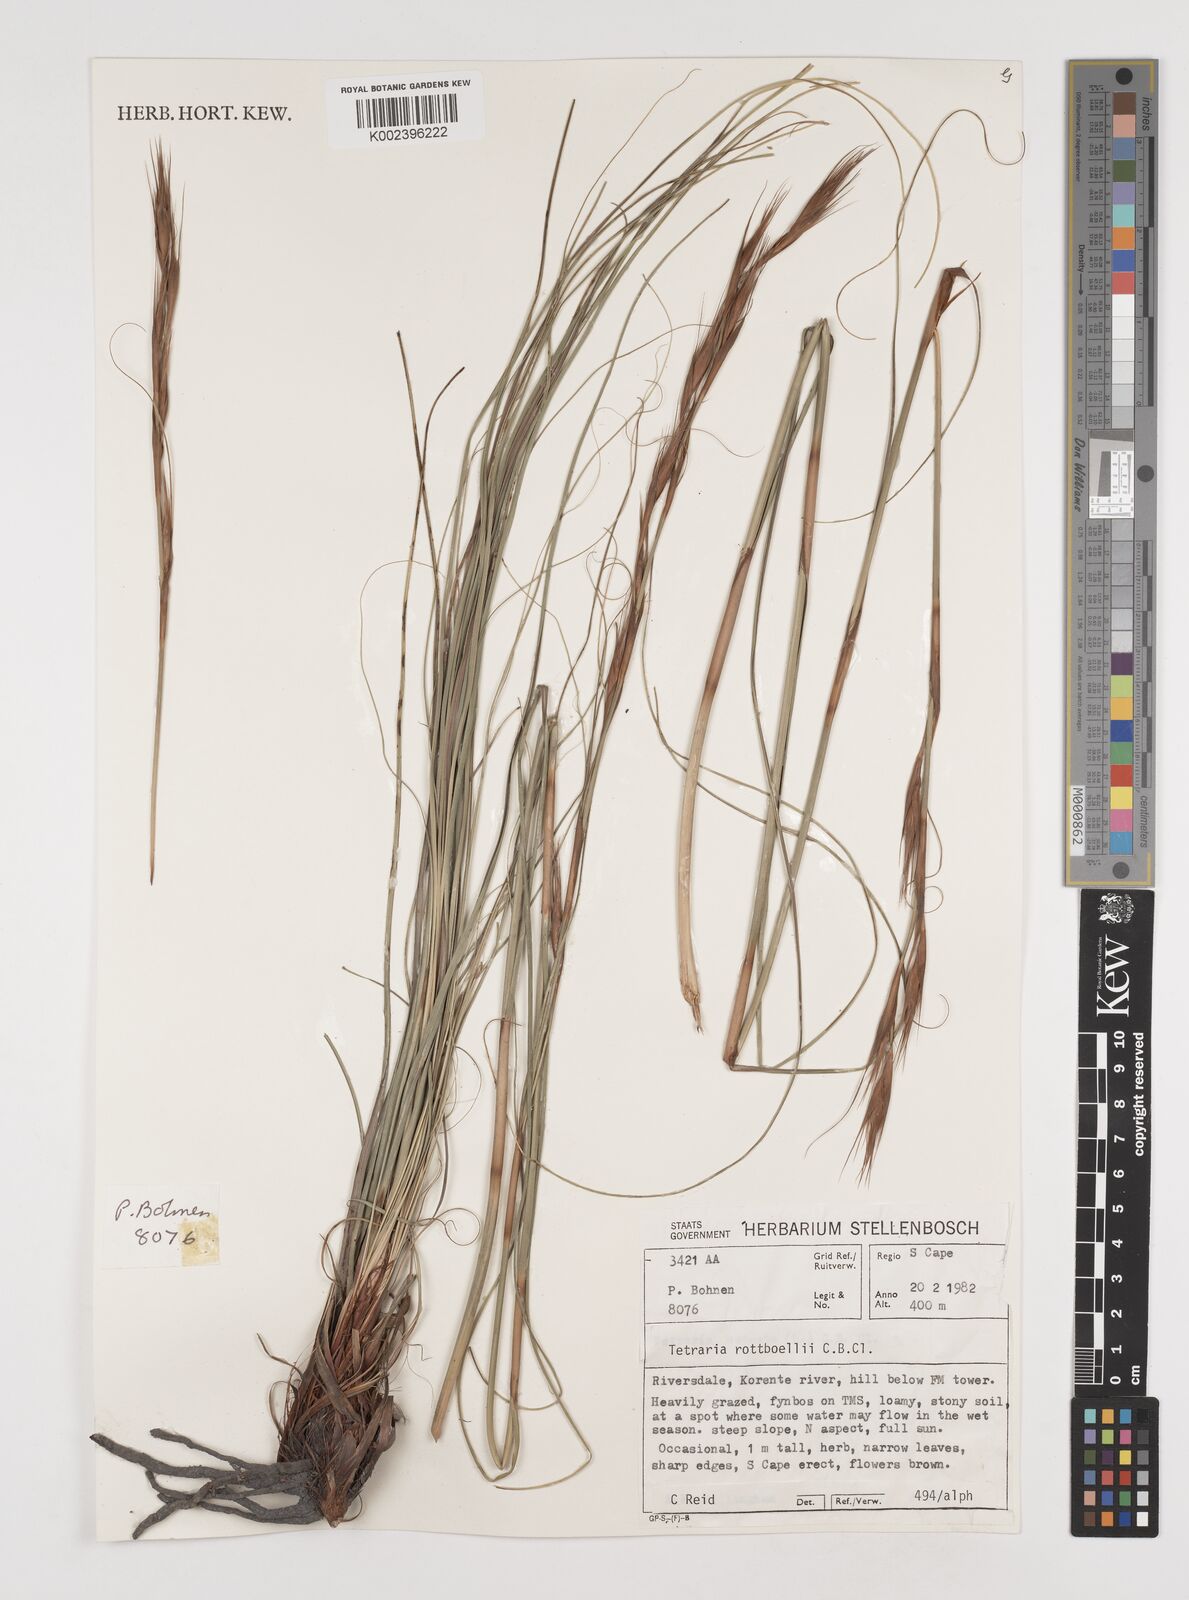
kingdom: Plantae
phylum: Tracheophyta
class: Liliopsida
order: Poales
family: Cyperaceae
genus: Tetraria
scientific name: Tetraria bromoides
